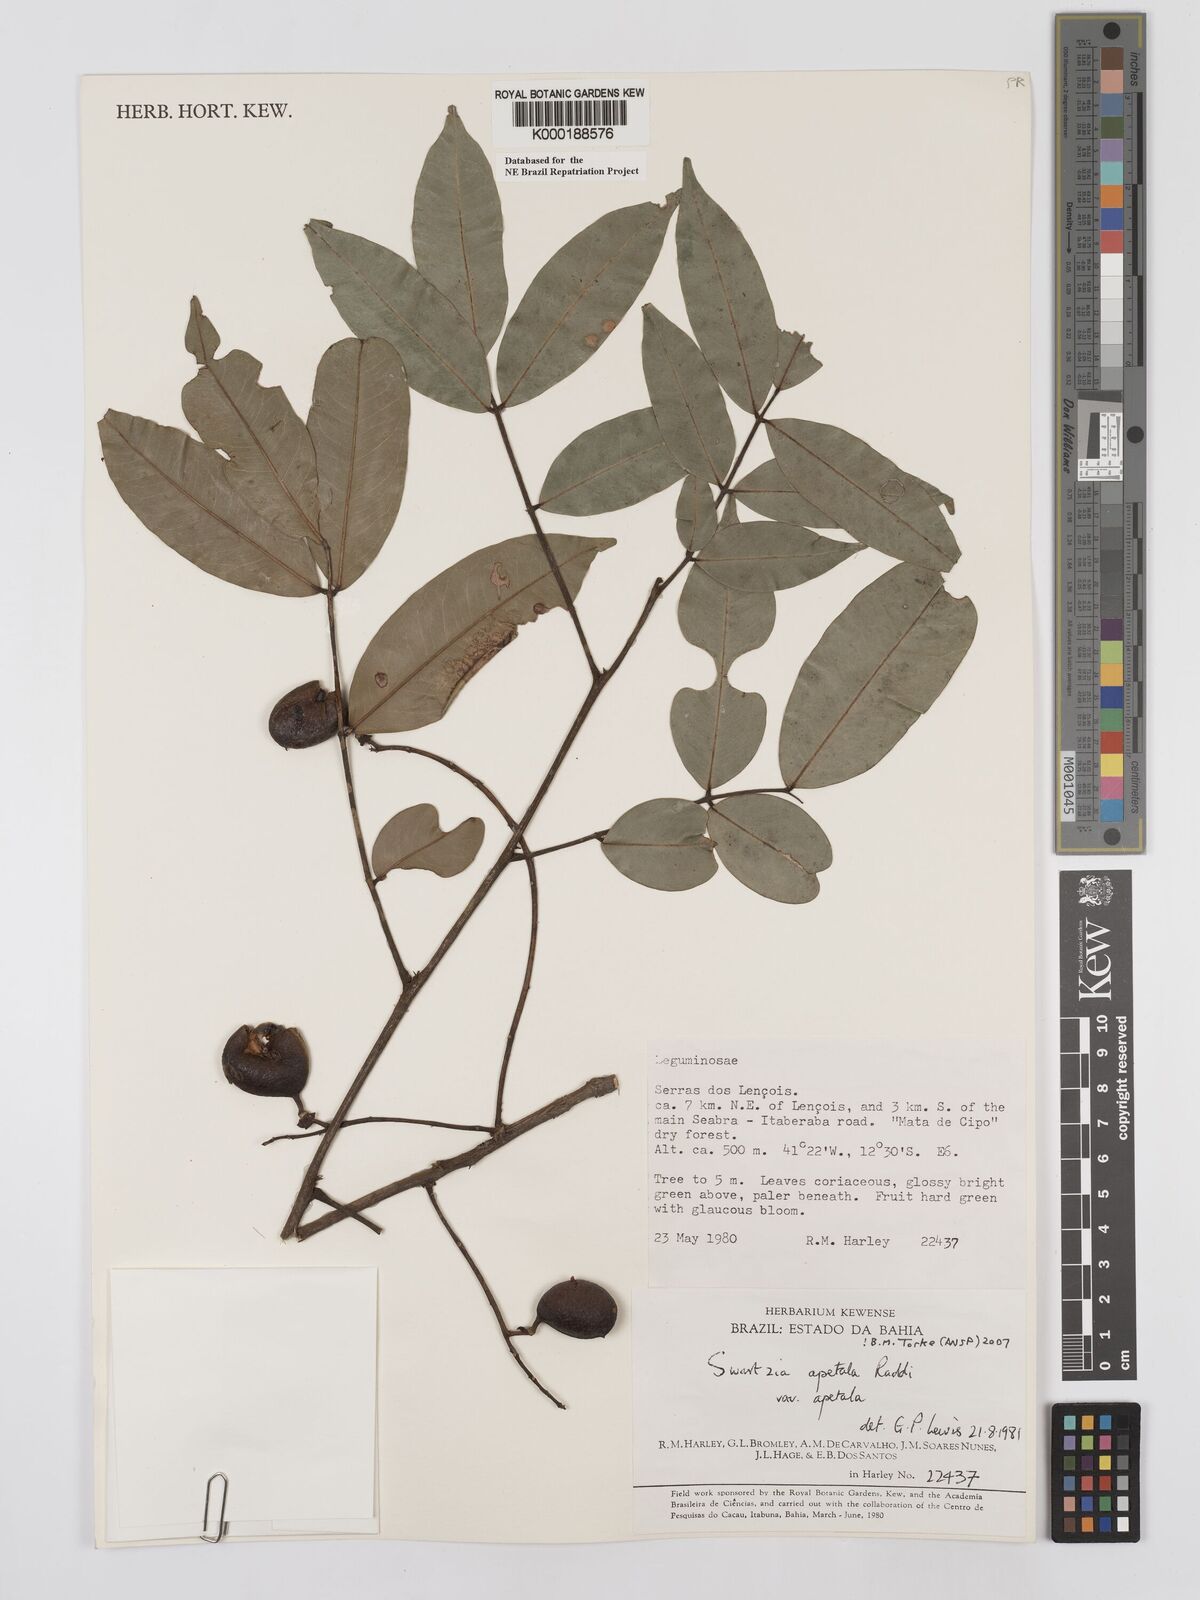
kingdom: Plantae
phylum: Tracheophyta
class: Magnoliopsida
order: Fabales
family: Fabaceae
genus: Swartzia
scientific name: Swartzia apetala
